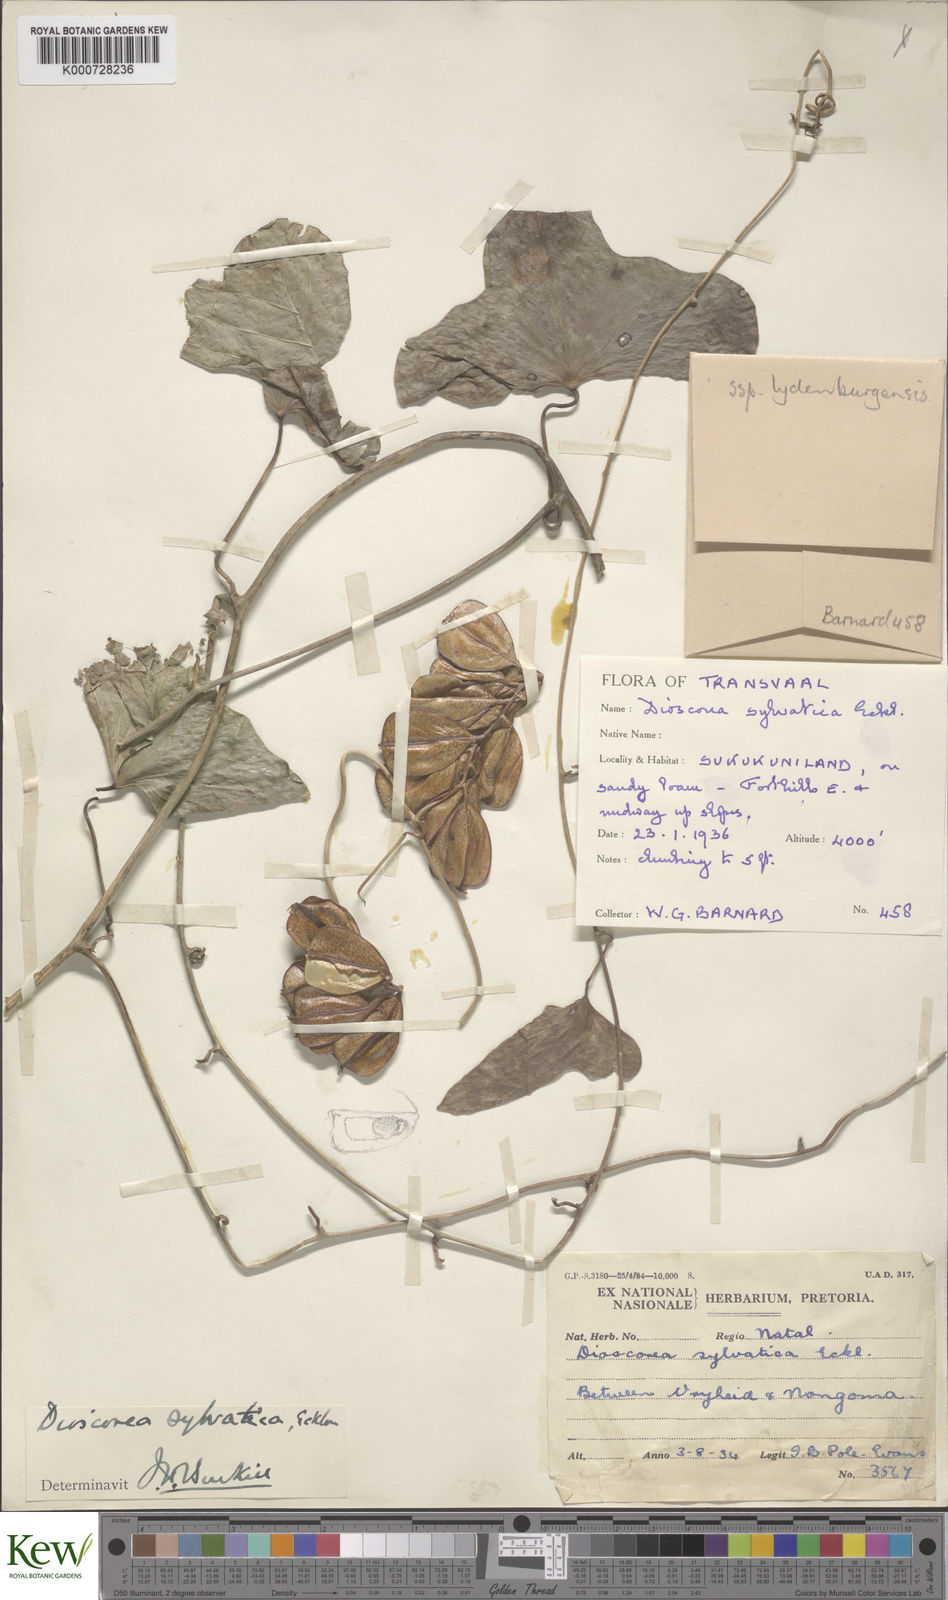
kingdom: Plantae
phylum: Tracheophyta
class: Liliopsida
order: Dioscoreales
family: Dioscoreaceae
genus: Dioscorea
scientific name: Dioscorea sylvatica
